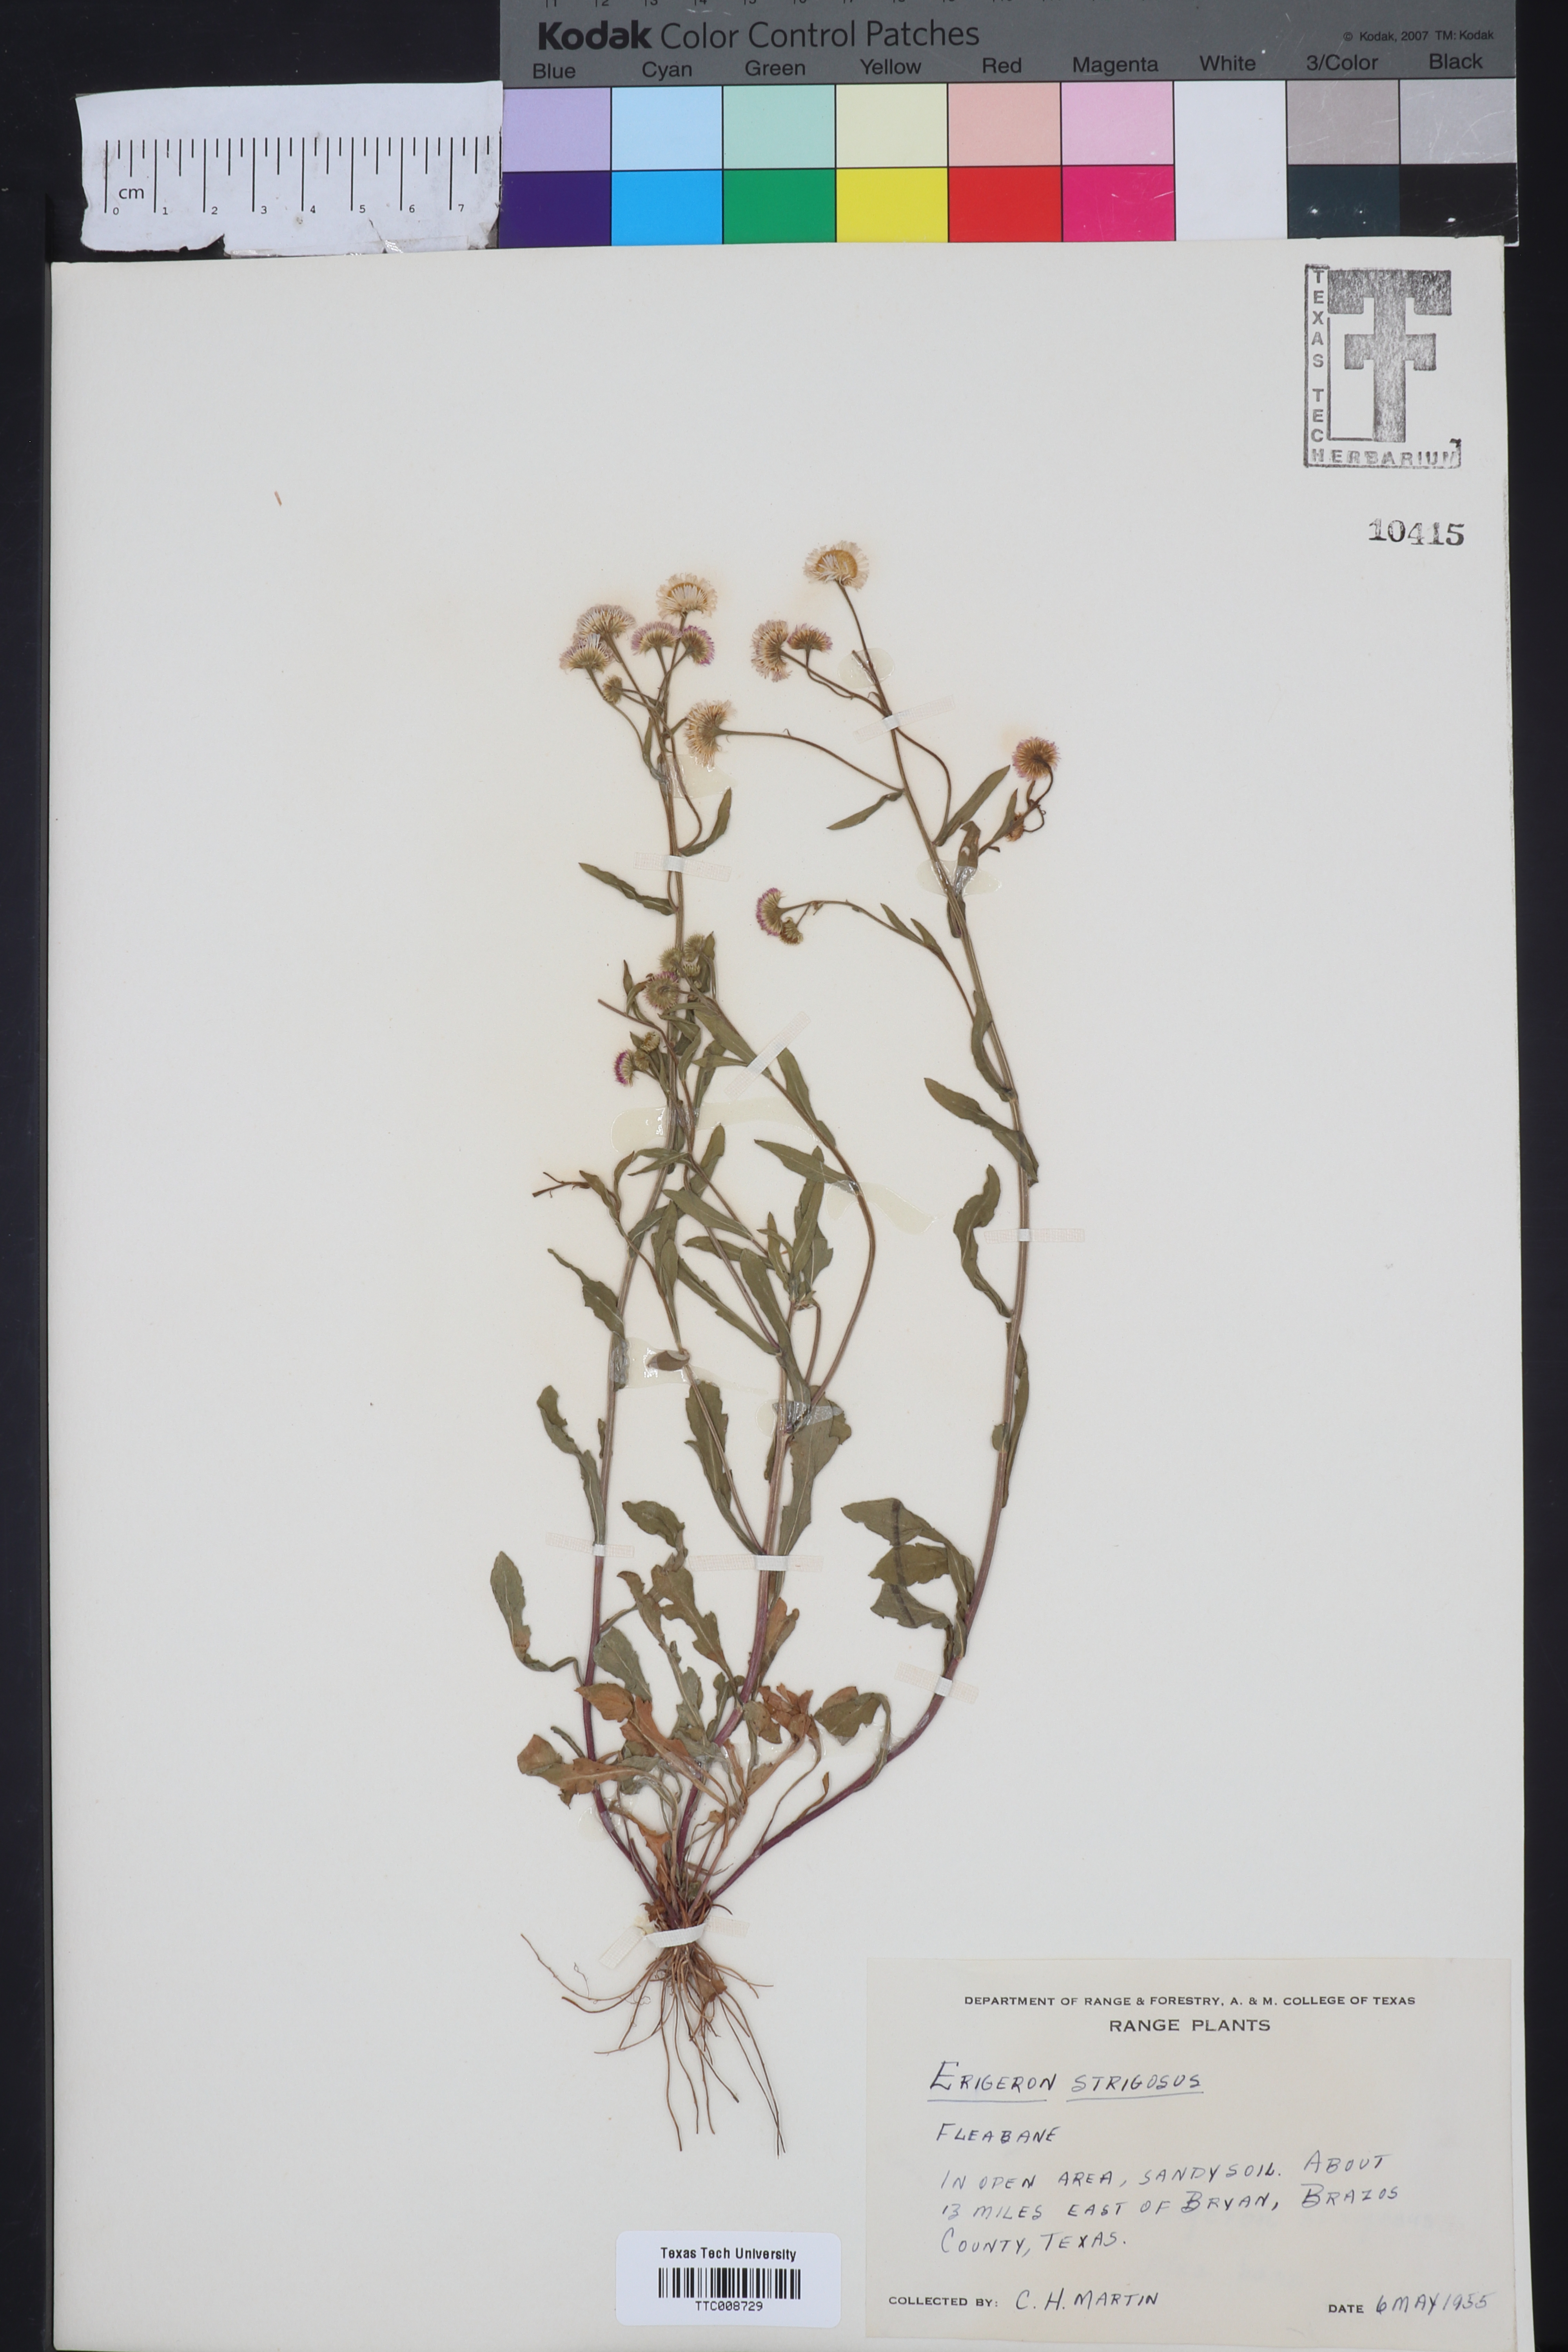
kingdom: Plantae
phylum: Tracheophyta
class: Magnoliopsida
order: Asterales
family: Asteraceae
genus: Erigeron
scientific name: Erigeron strigosus
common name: Common eastern fleabane
